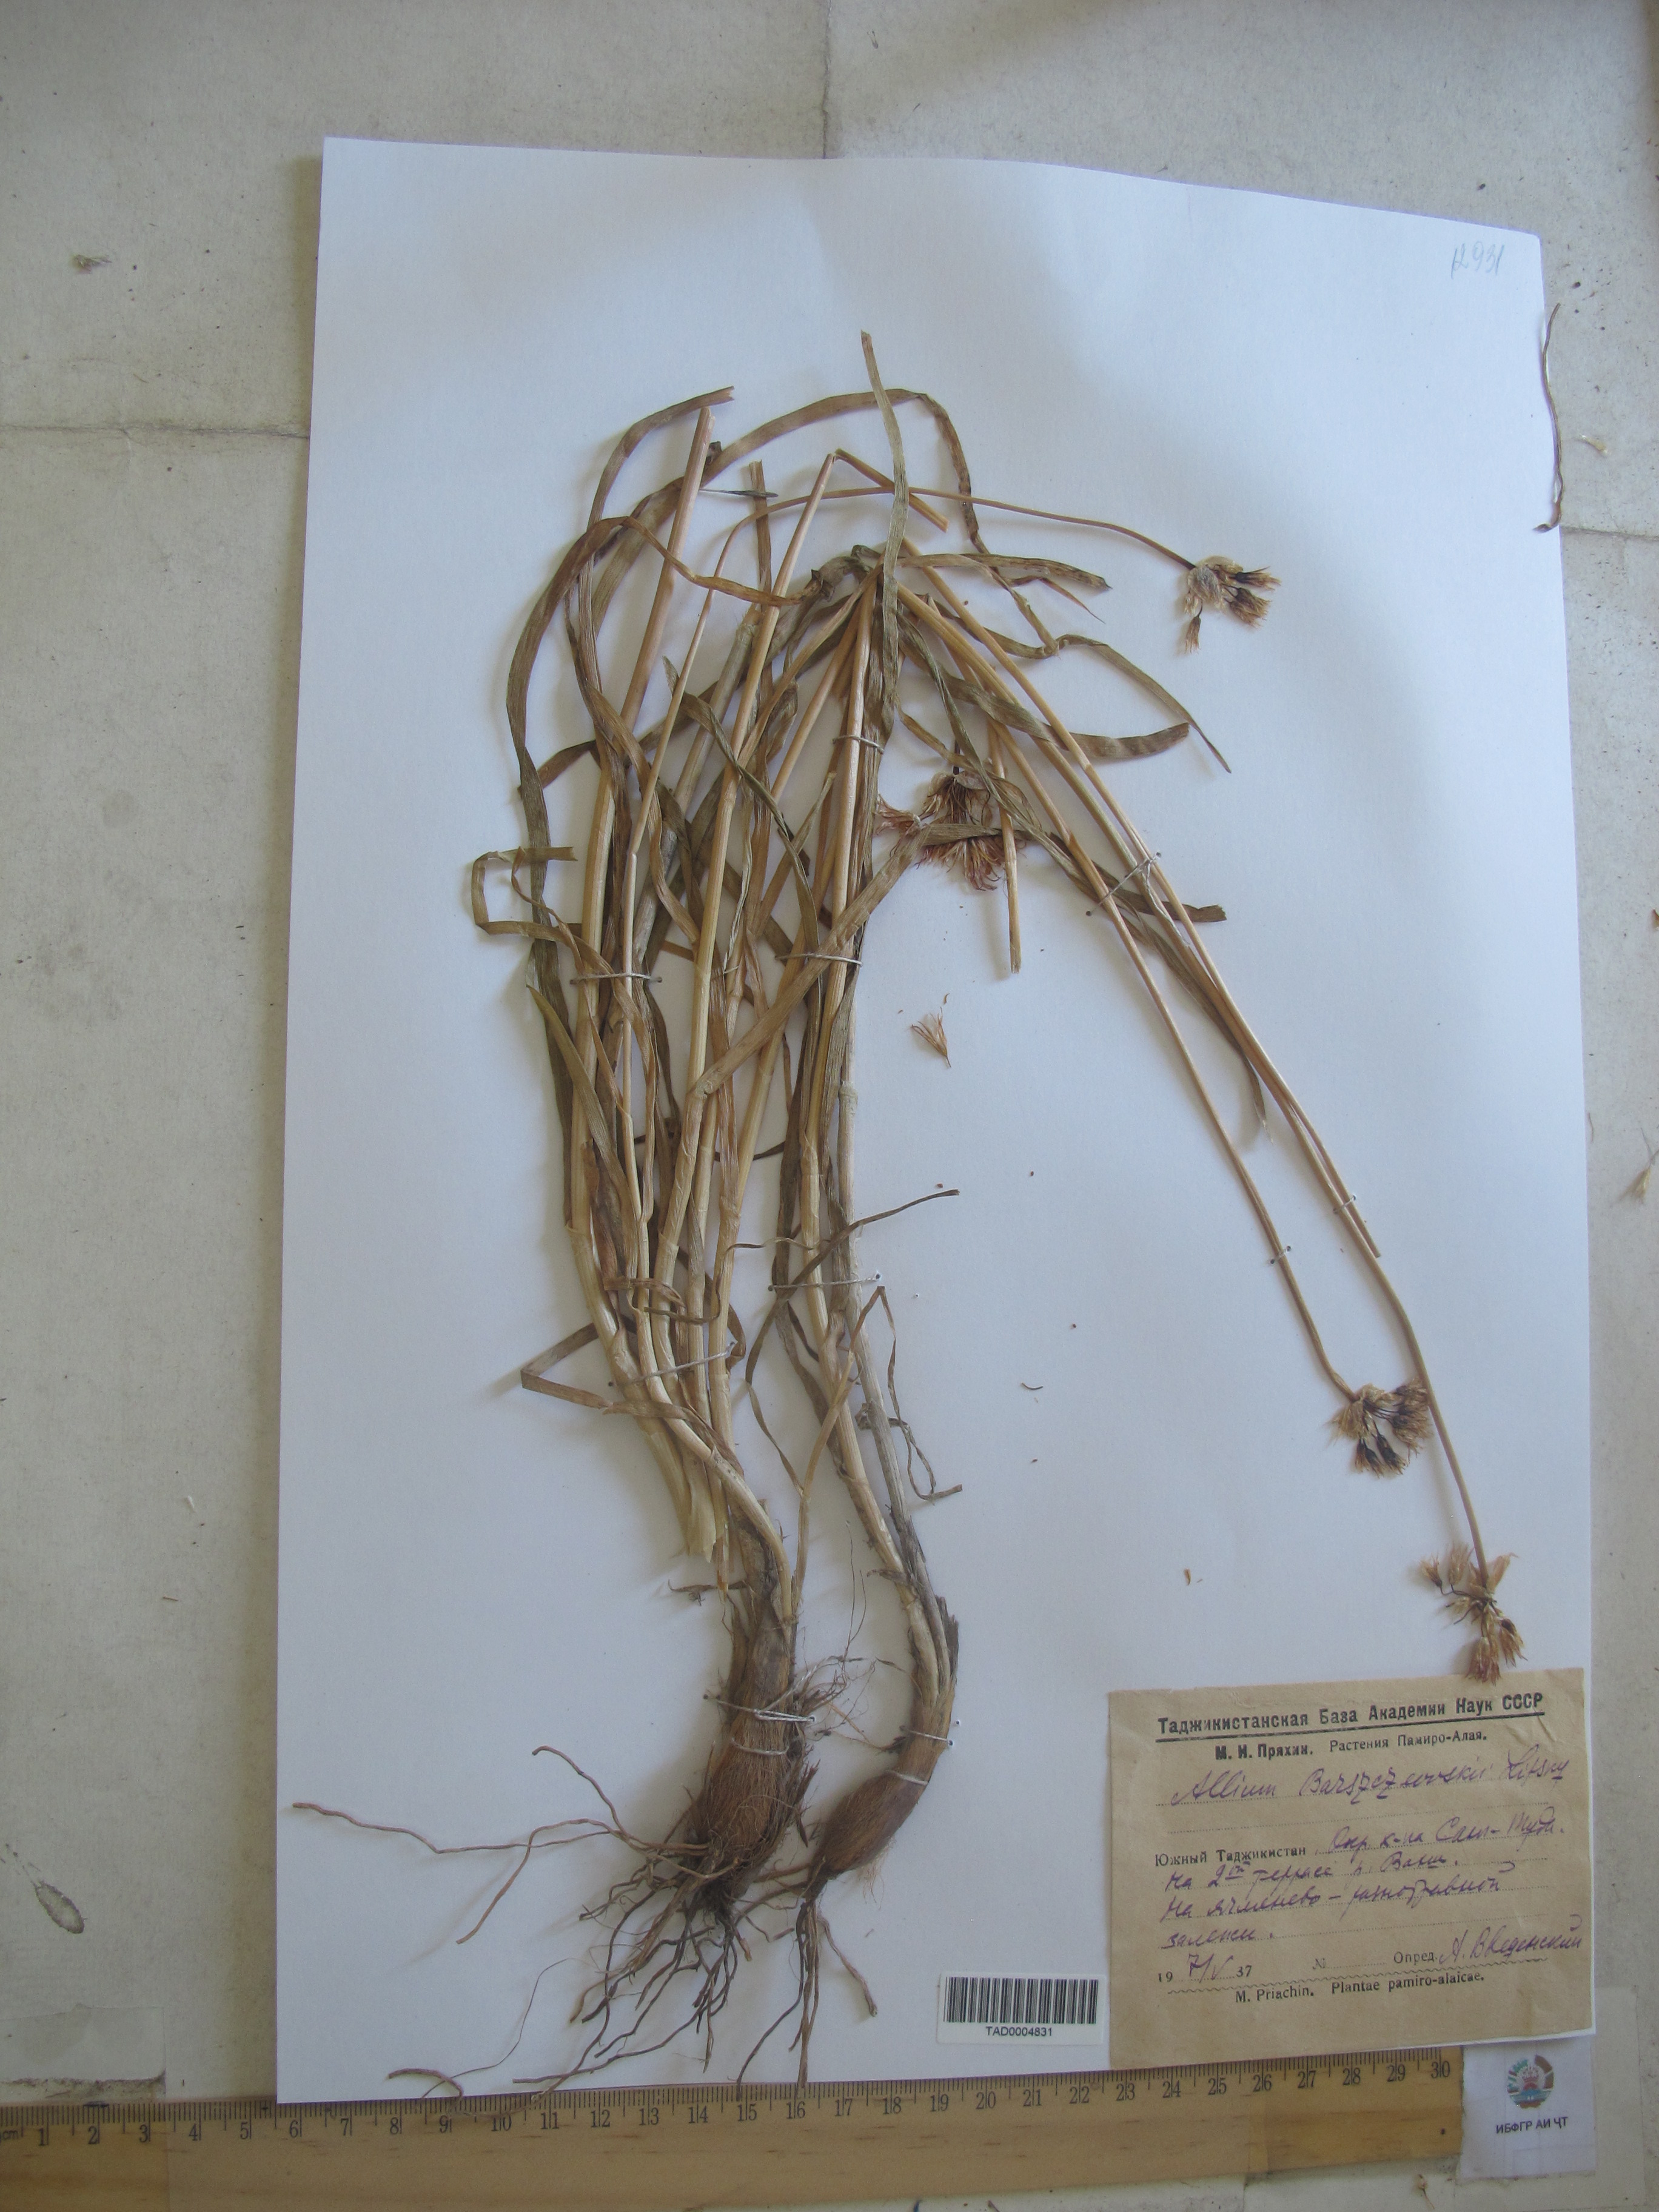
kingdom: Plantae
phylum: Tracheophyta
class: Liliopsida
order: Asparagales
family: Amaryllidaceae
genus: Allium
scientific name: Allium barsczewskii
